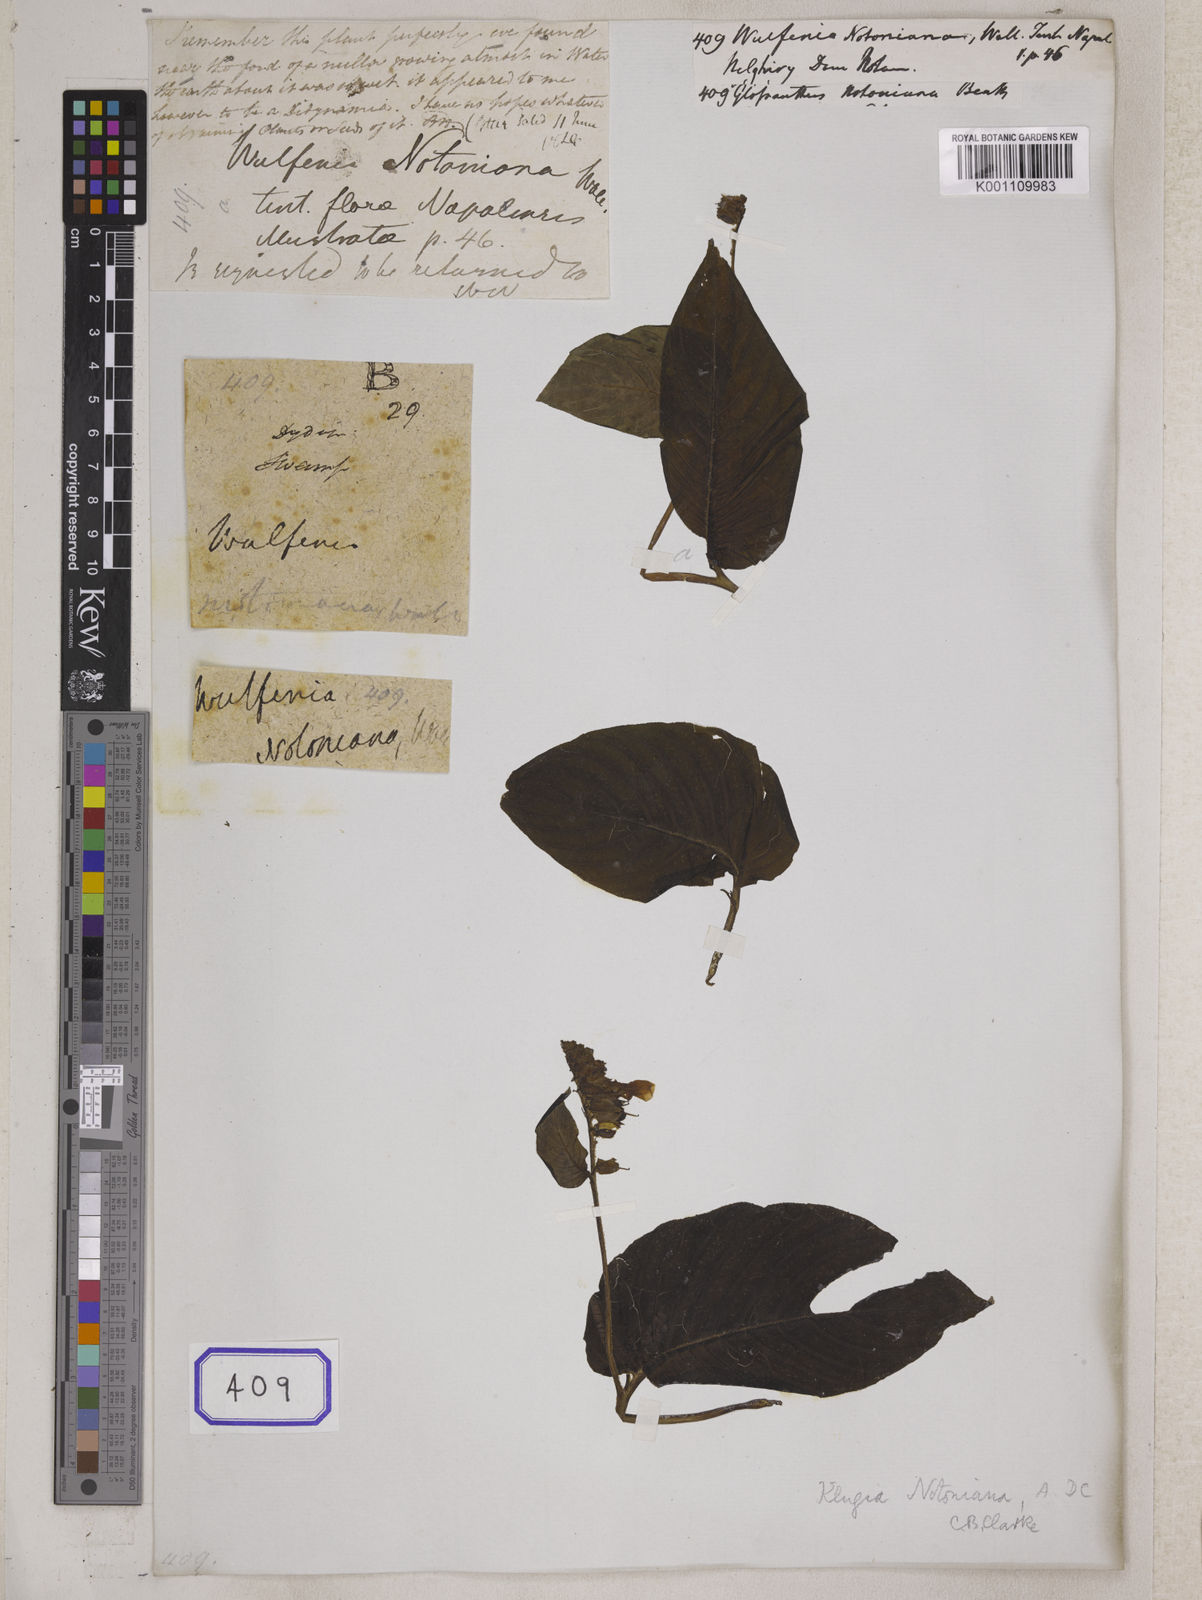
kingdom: Plantae
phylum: Tracheophyta
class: Magnoliopsida
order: Lamiales
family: Gesneriaceae
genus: Rhynchoglossum
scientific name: Rhynchoglossum notonianum
